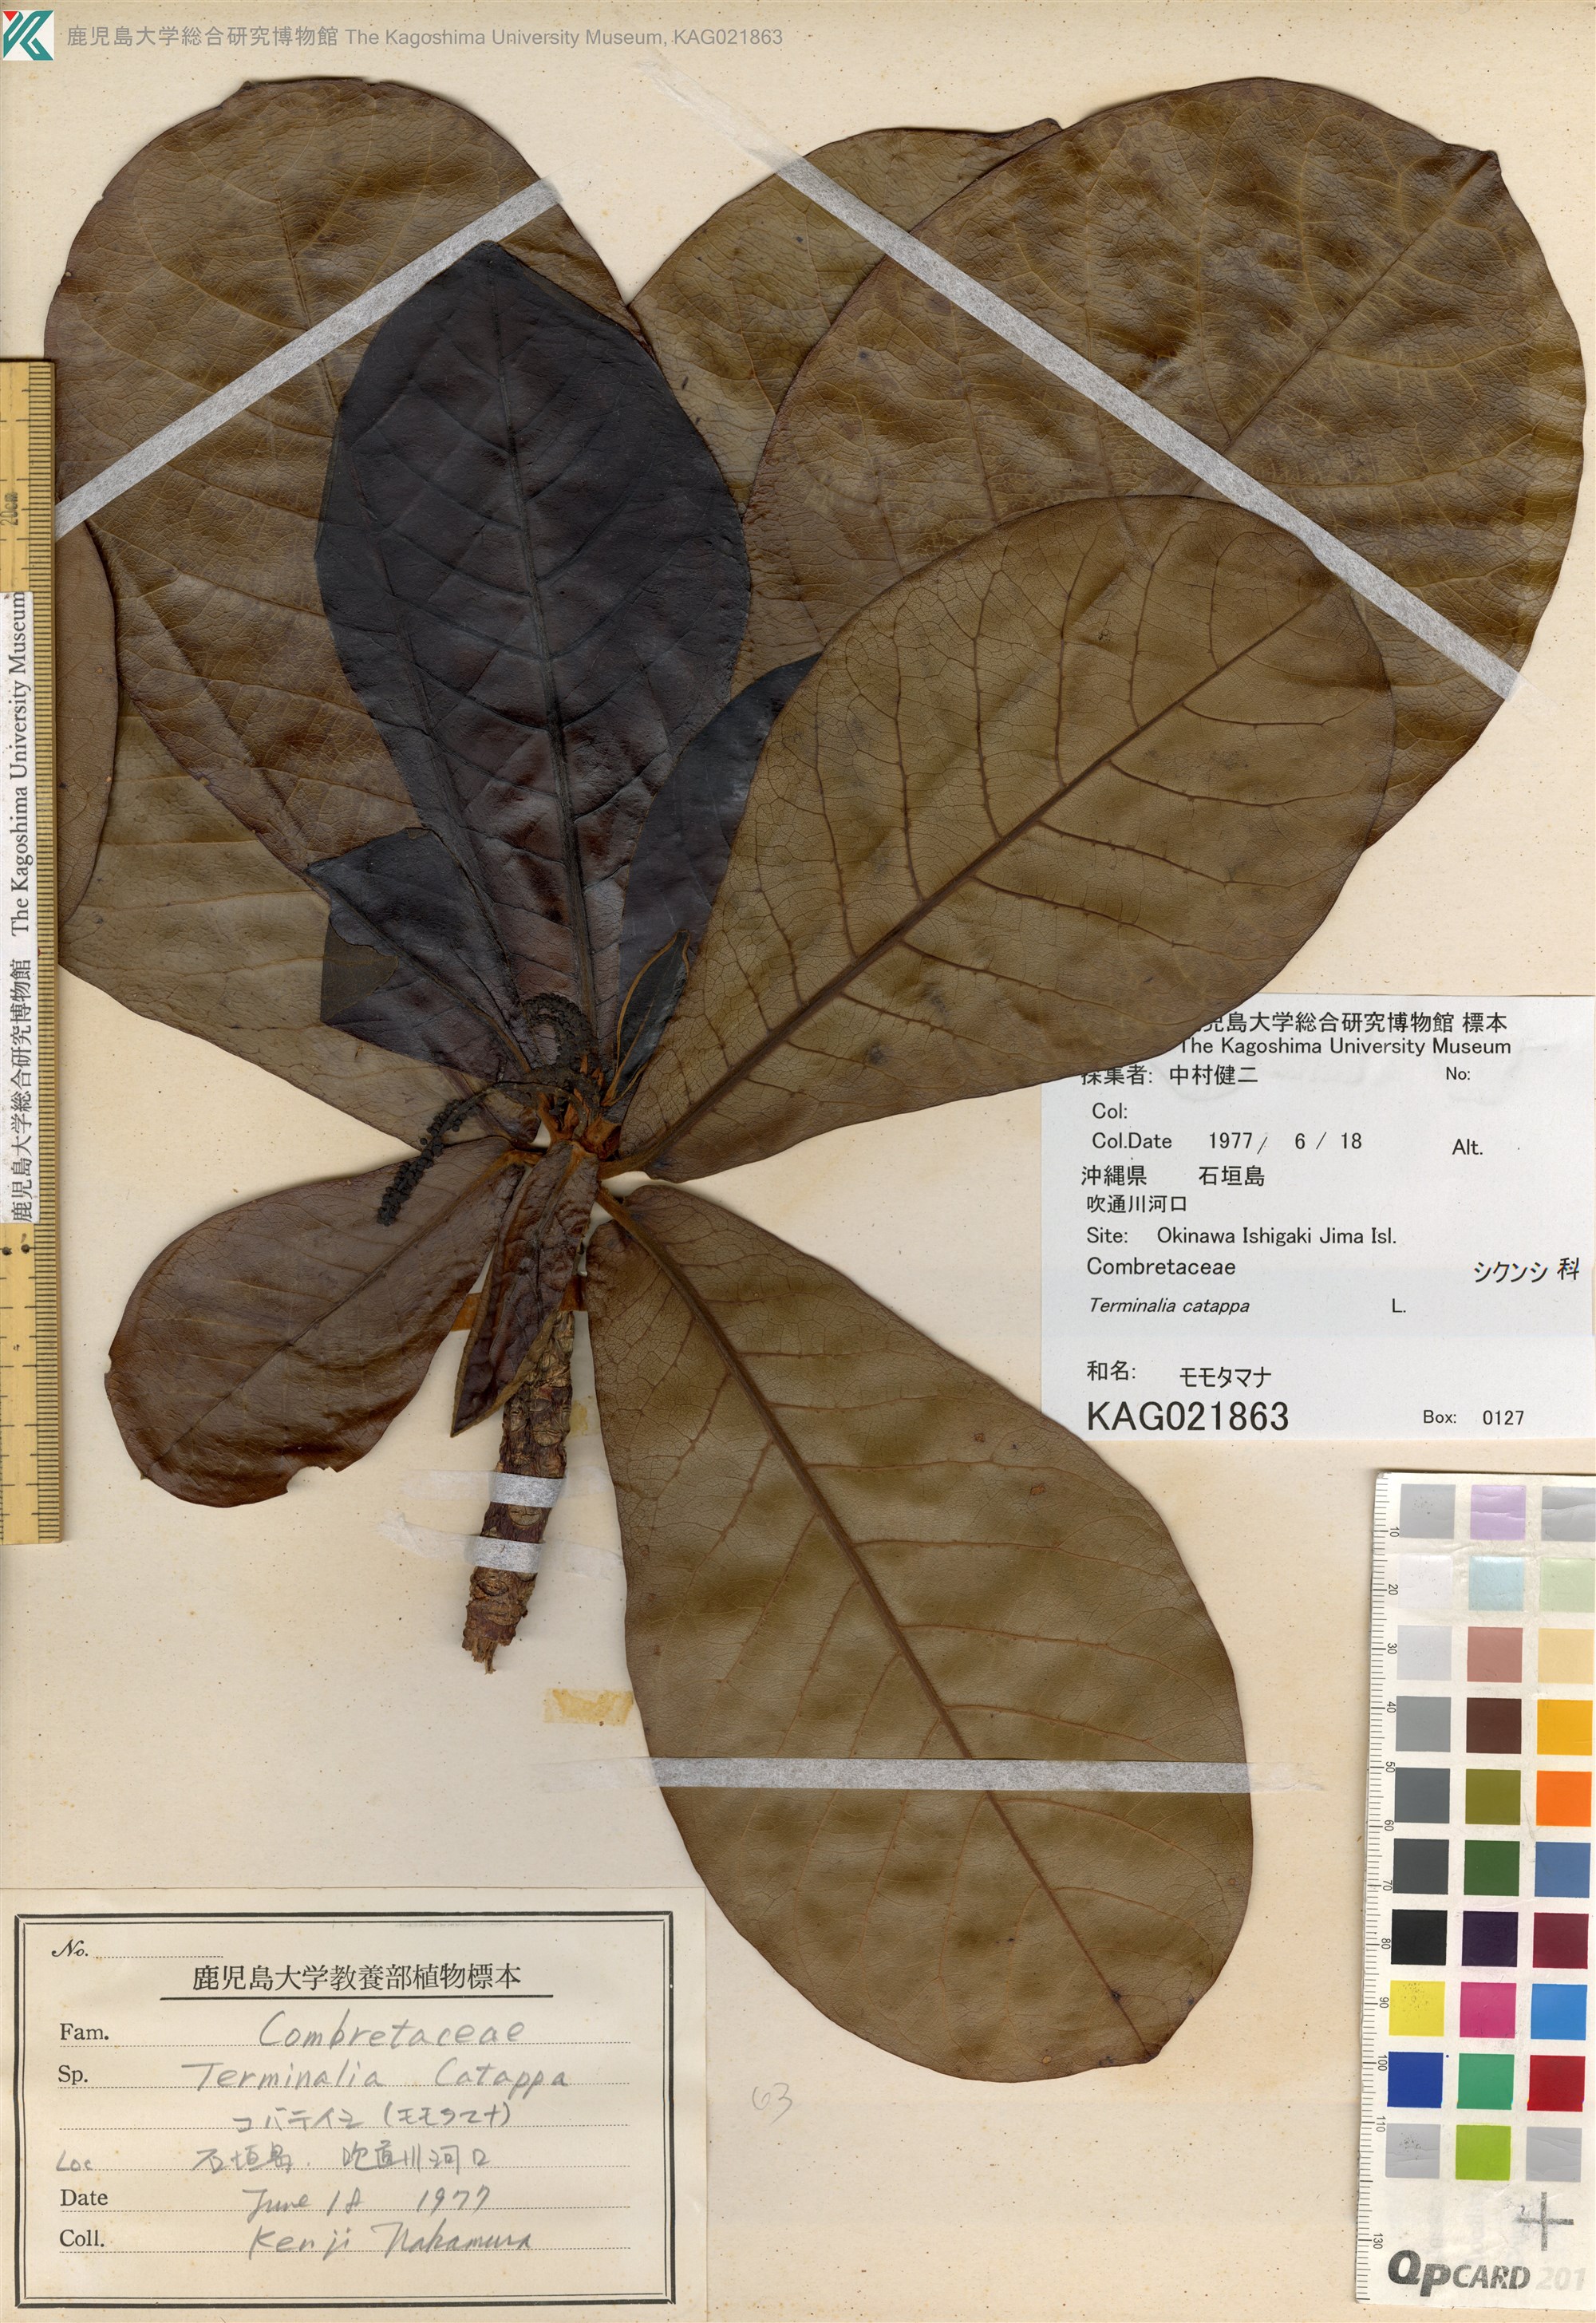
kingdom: Plantae
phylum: Tracheophyta
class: Magnoliopsida
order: Myrtales
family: Combretaceae
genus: Terminalia
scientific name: Terminalia catappa
